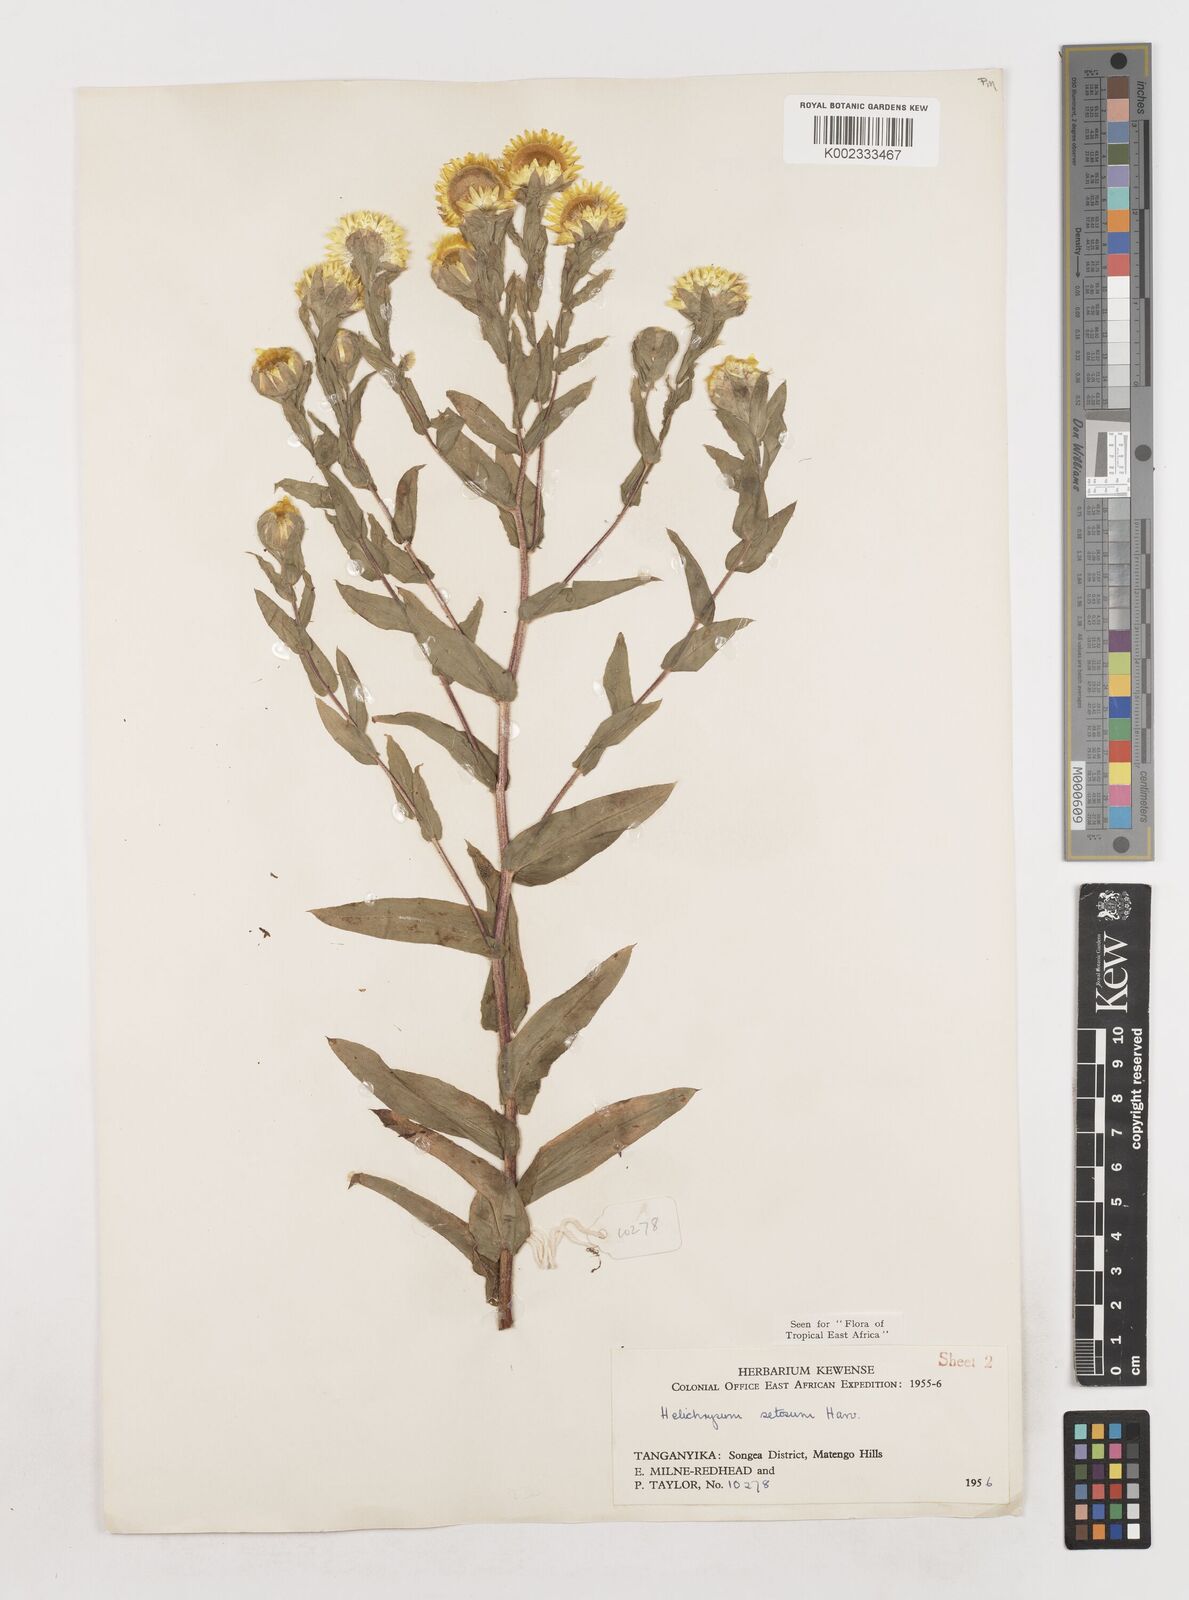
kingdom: Plantae
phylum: Tracheophyta
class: Magnoliopsida
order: Asterales
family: Asteraceae
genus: Helichrysum
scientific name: Helichrysum setosum
